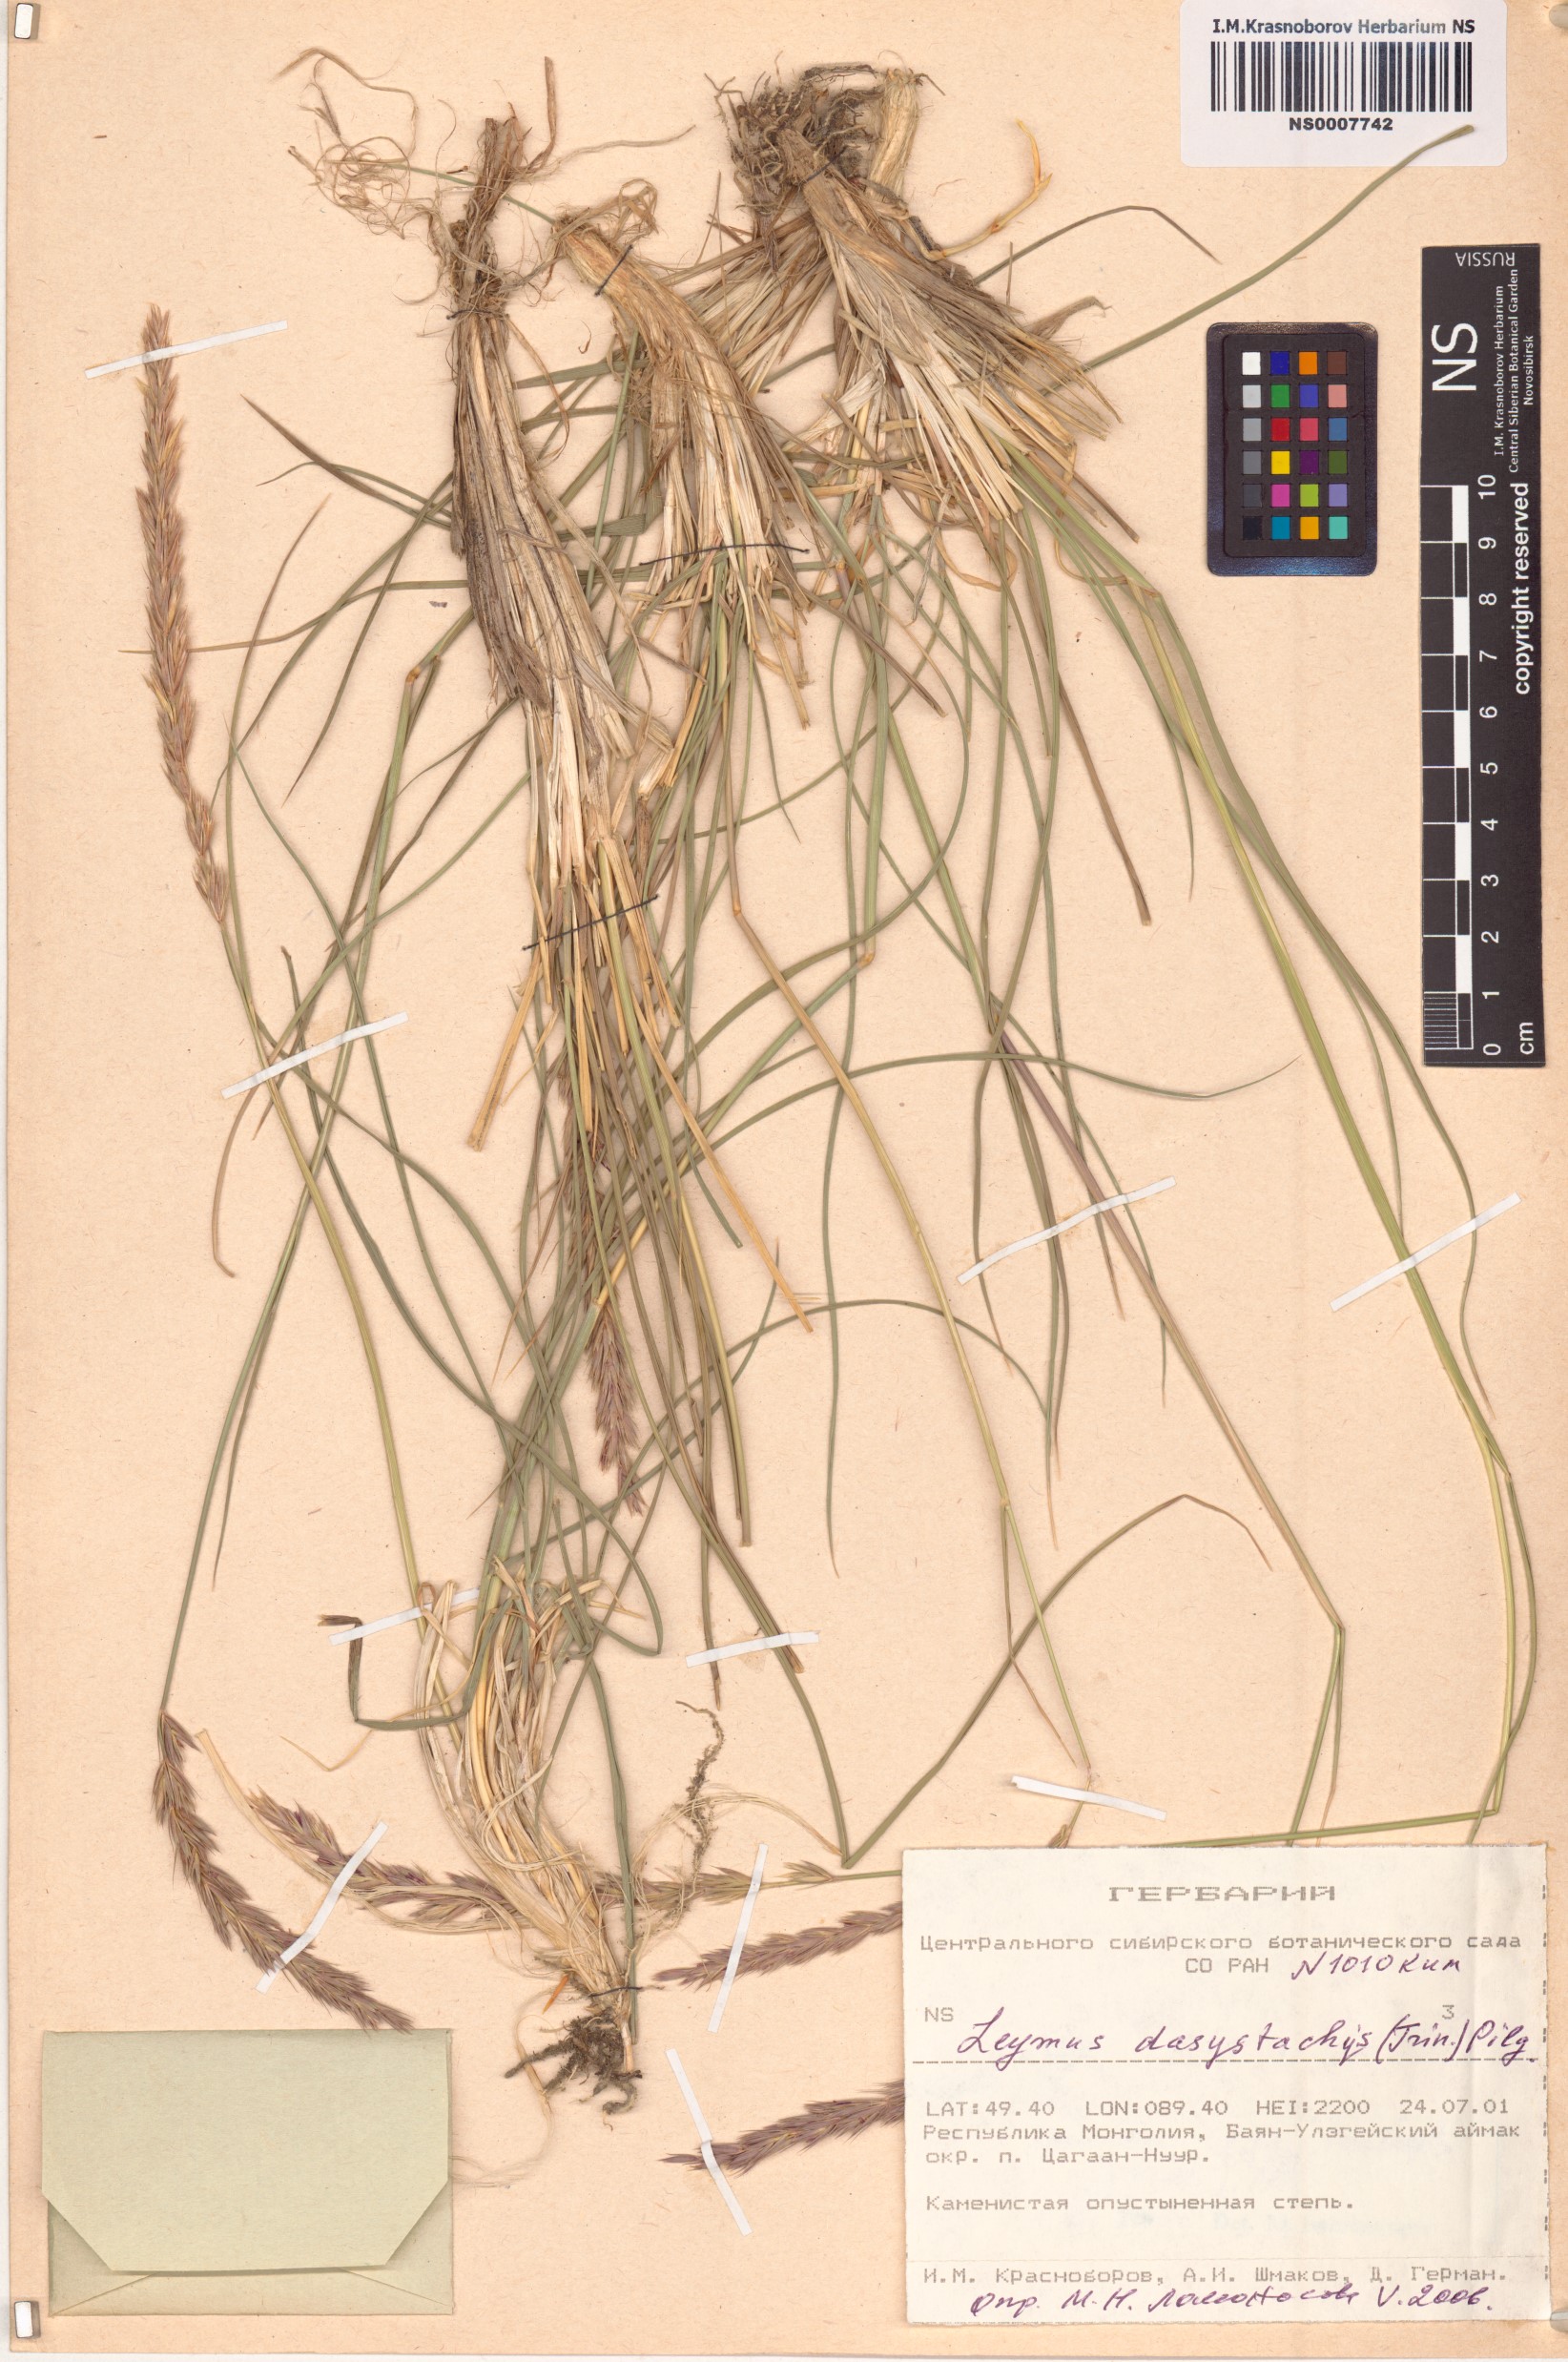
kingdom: Plantae
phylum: Tracheophyta
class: Liliopsida
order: Poales
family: Poaceae
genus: Leymus
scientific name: Leymus secalinus
